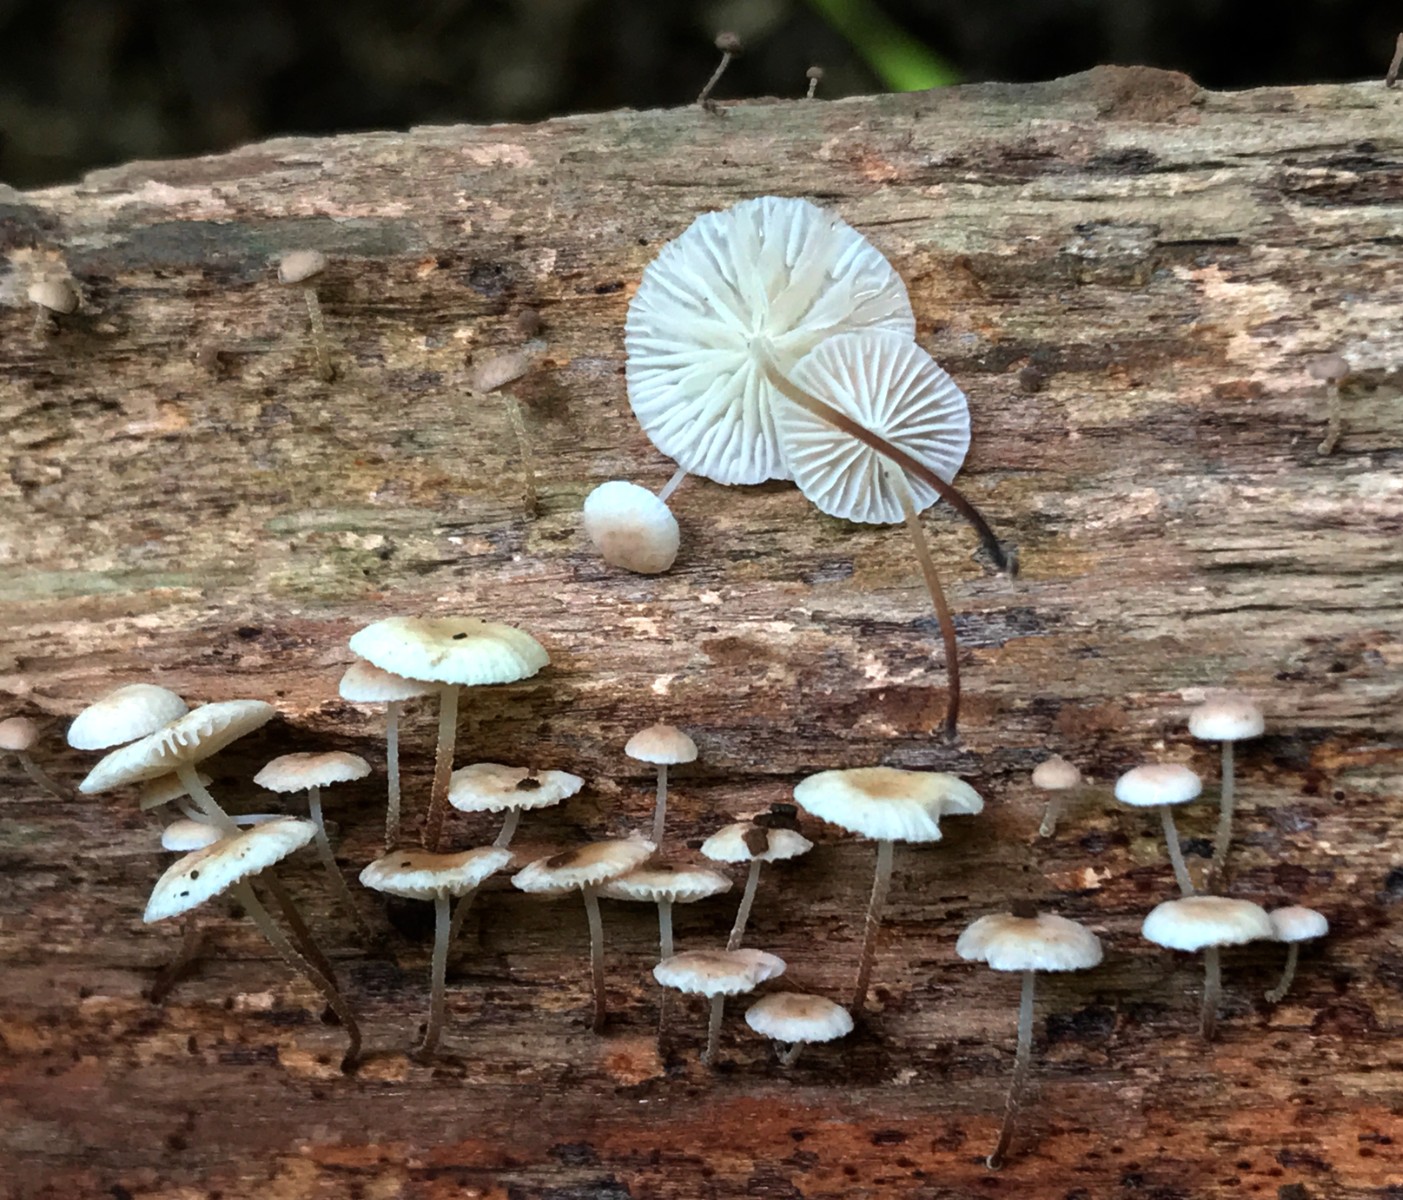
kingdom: Fungi
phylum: Basidiomycota
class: Agaricomycetes
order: Agaricales
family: Omphalotaceae
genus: Collybiopsis
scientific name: Collybiopsis ramealis
